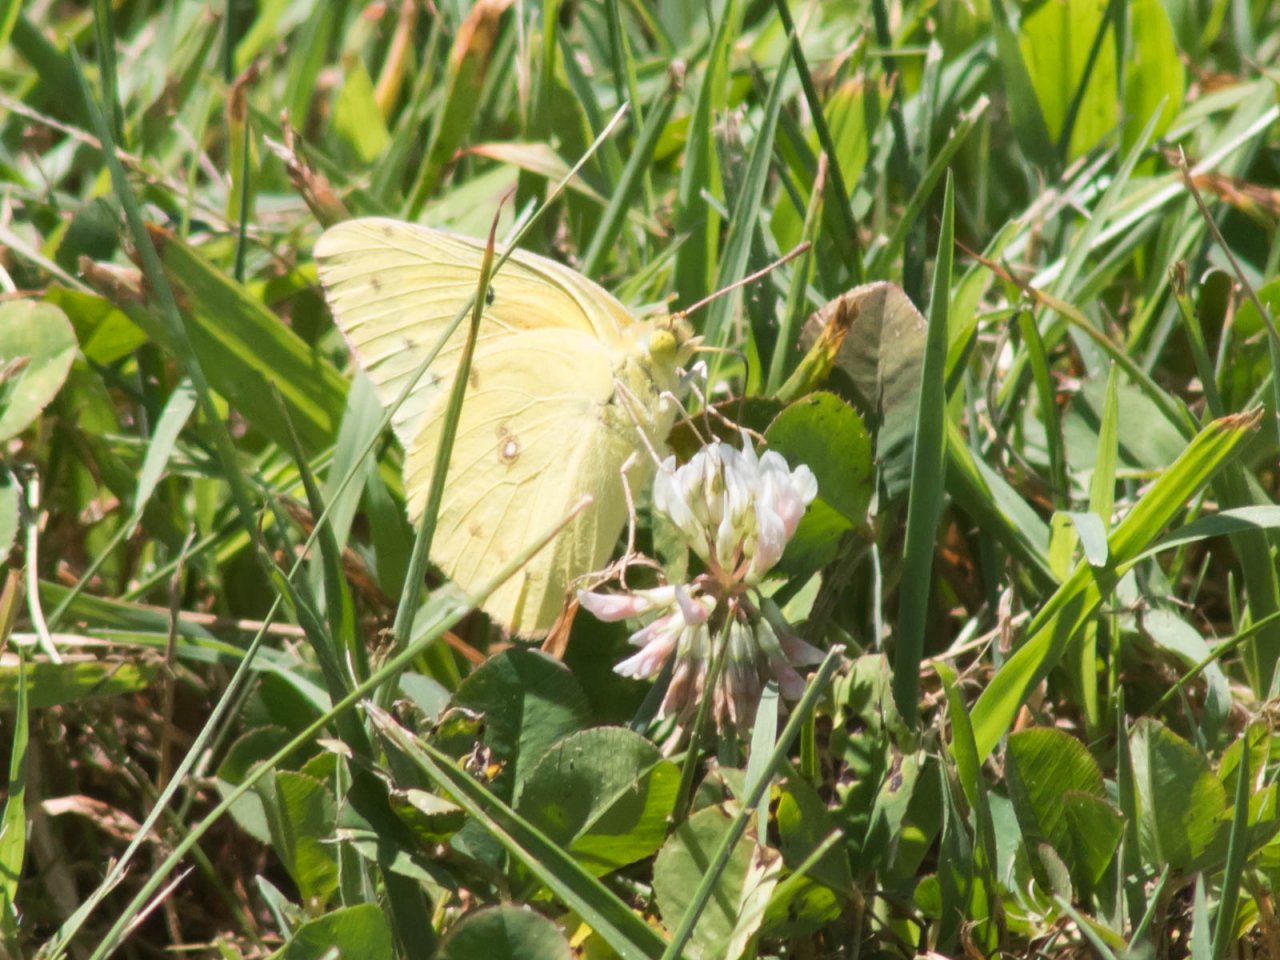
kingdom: Animalia
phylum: Arthropoda
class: Insecta
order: Lepidoptera
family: Pieridae
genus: Colias
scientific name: Colias eurytheme
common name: Orange Sulphur
